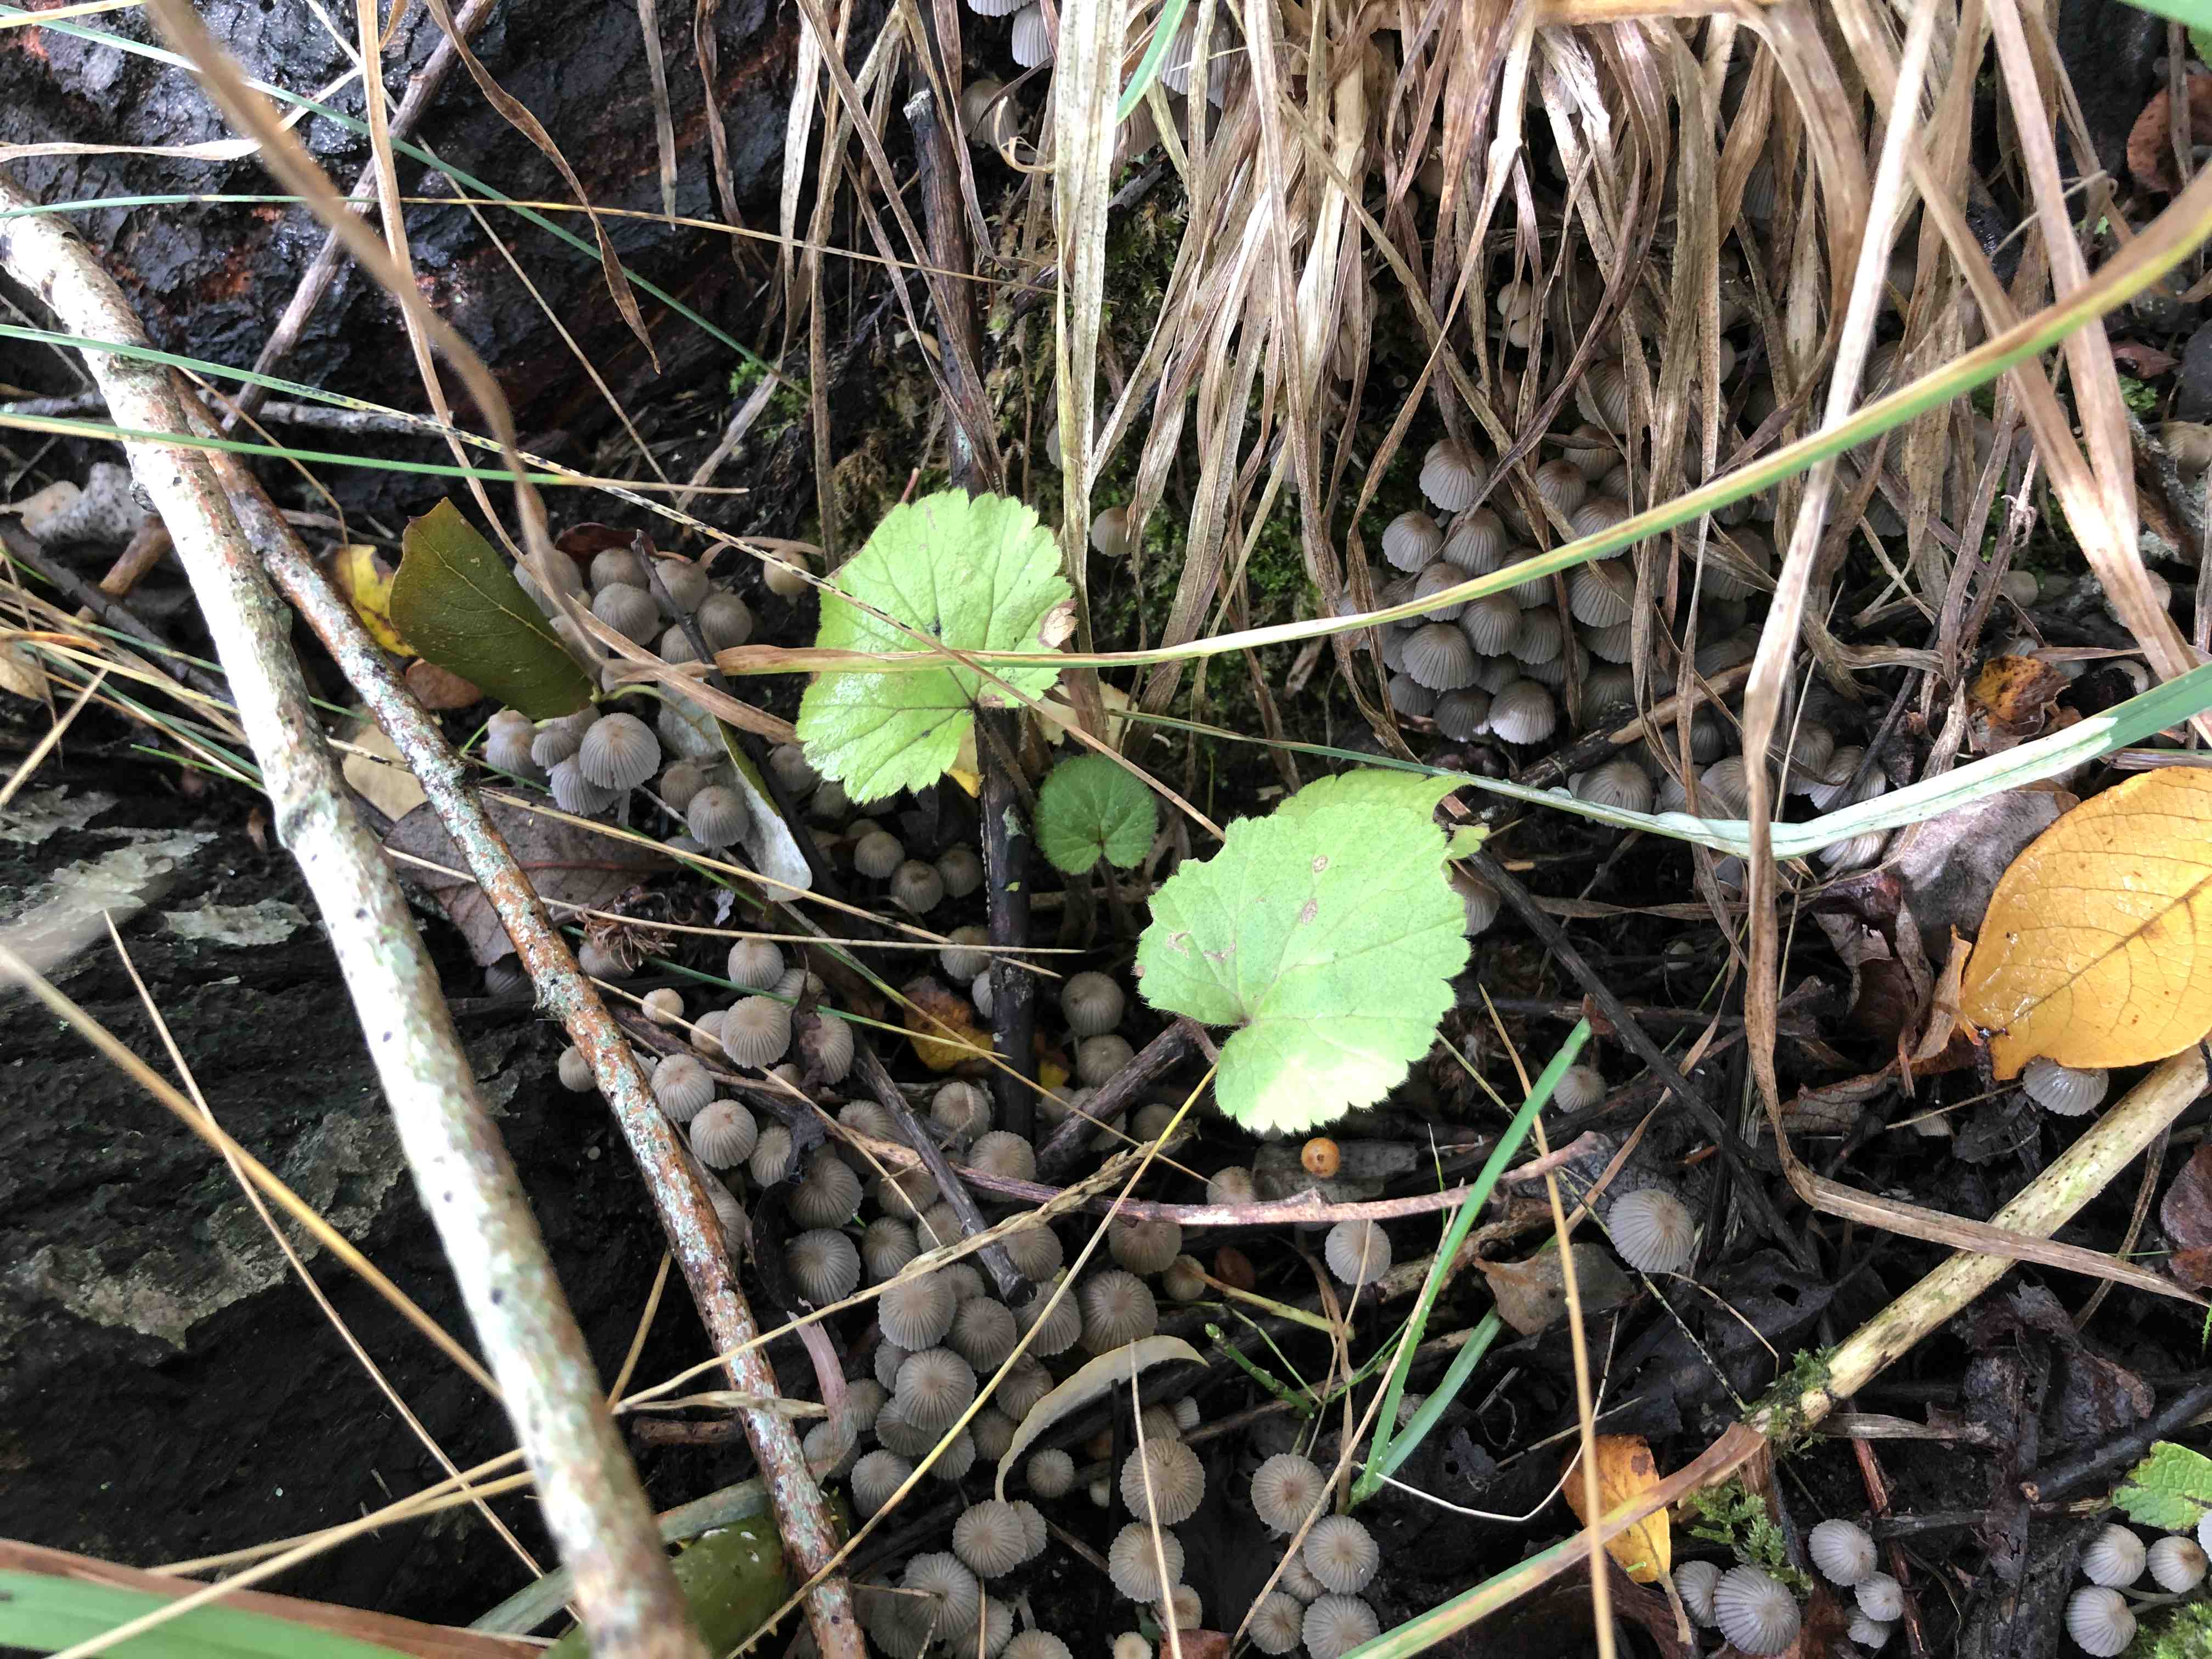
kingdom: Fungi
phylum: Basidiomycota
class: Agaricomycetes
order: Agaricales
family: Psathyrellaceae
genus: Coprinellus
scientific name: Coprinellus disseminatus
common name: bredsået blækhat
